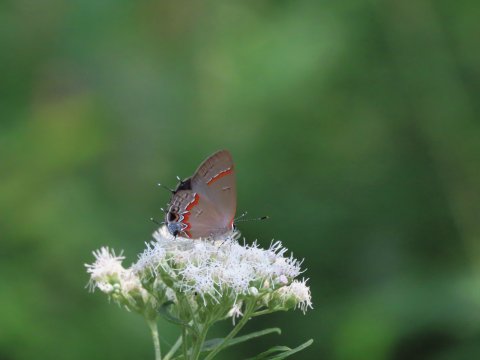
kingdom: Animalia
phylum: Arthropoda
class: Insecta
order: Lepidoptera
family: Lycaenidae
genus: Calycopis
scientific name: Calycopis cecrops
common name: Red-banded Hairstreak
